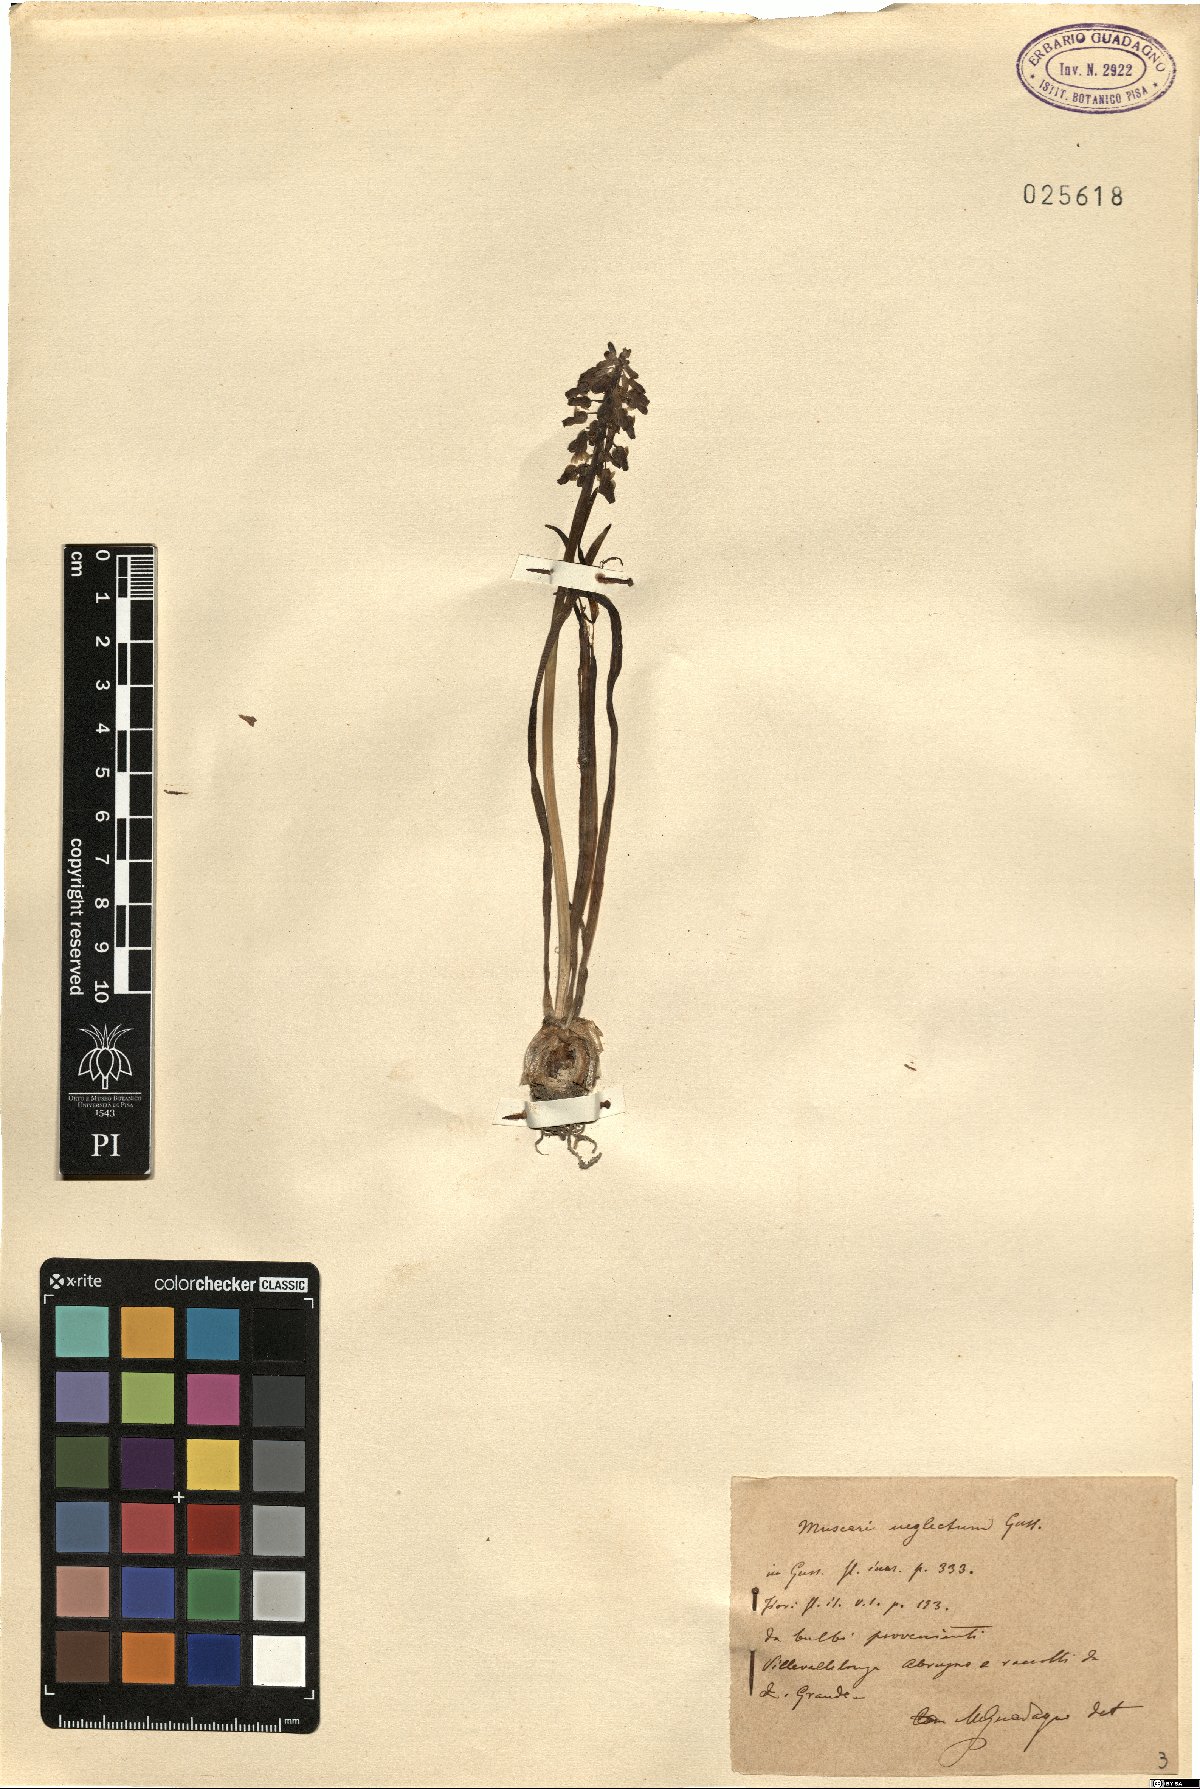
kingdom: Plantae
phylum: Tracheophyta
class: Liliopsida
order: Asparagales
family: Asparagaceae
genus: Muscari
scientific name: Muscari neglectum
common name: Grape-hyacinth
